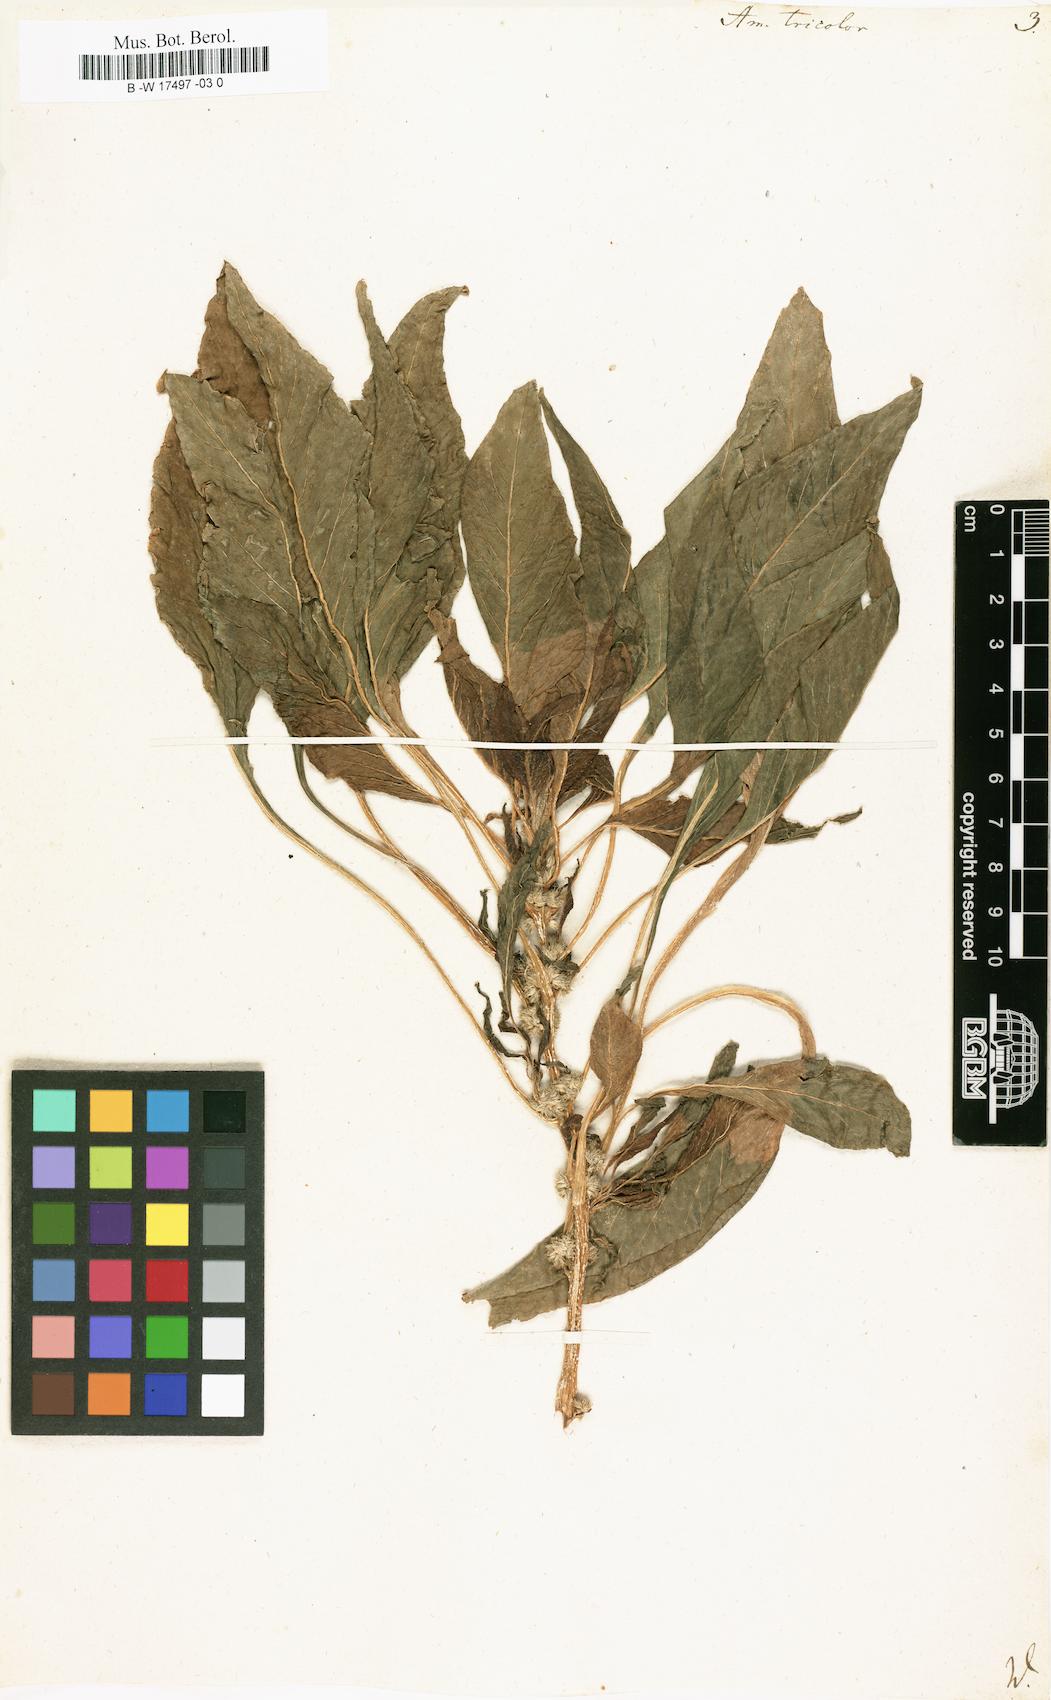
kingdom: Plantae
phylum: Tracheophyta
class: Magnoliopsida
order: Caryophyllales
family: Amaranthaceae
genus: Amaranthus
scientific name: Amaranthus tricolor
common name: Joseph's-coat
